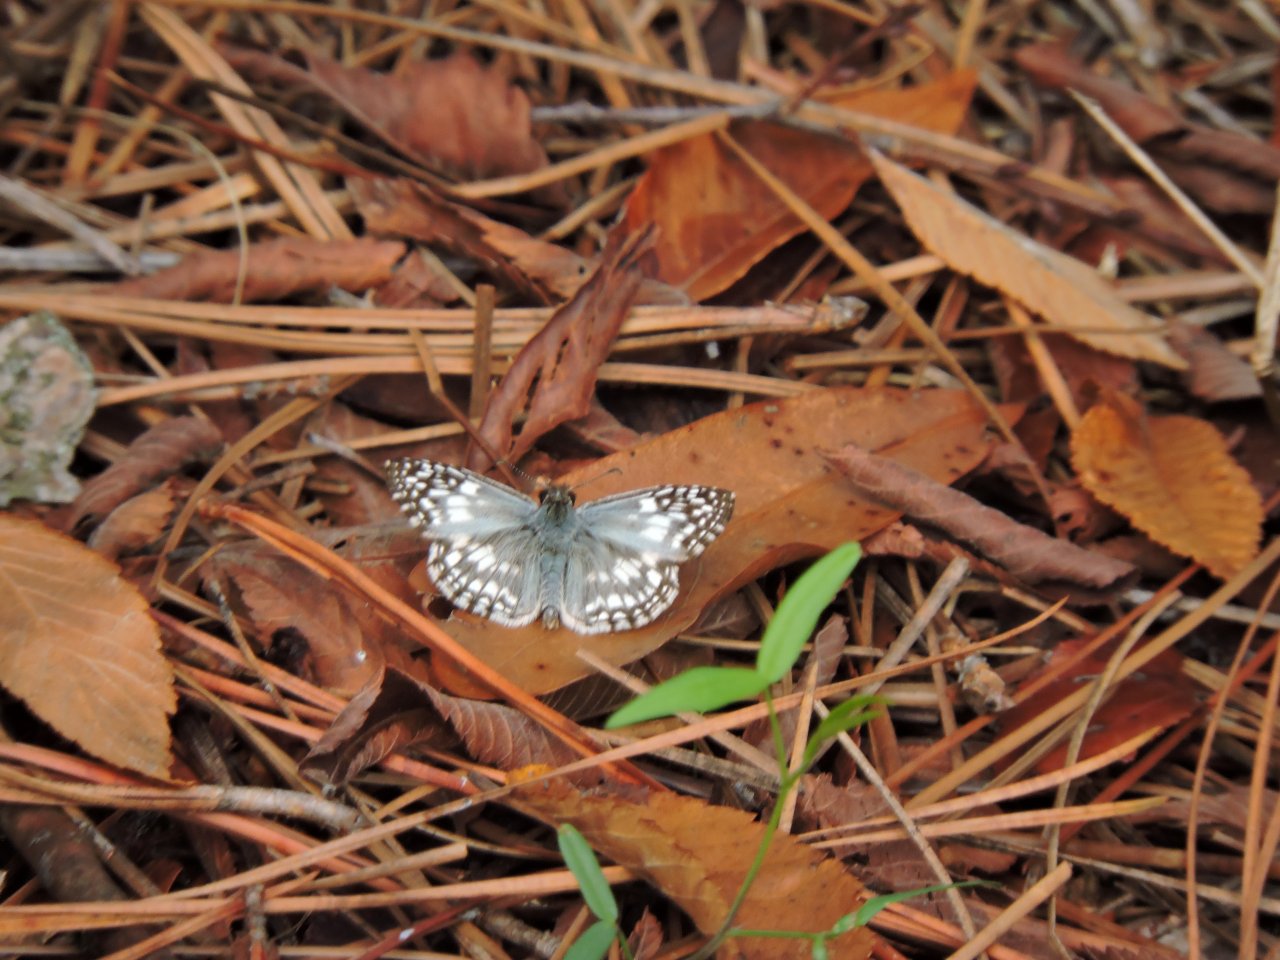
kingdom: Animalia
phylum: Arthropoda
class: Insecta
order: Lepidoptera
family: Hesperiidae
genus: Pyrgus
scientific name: Pyrgus
